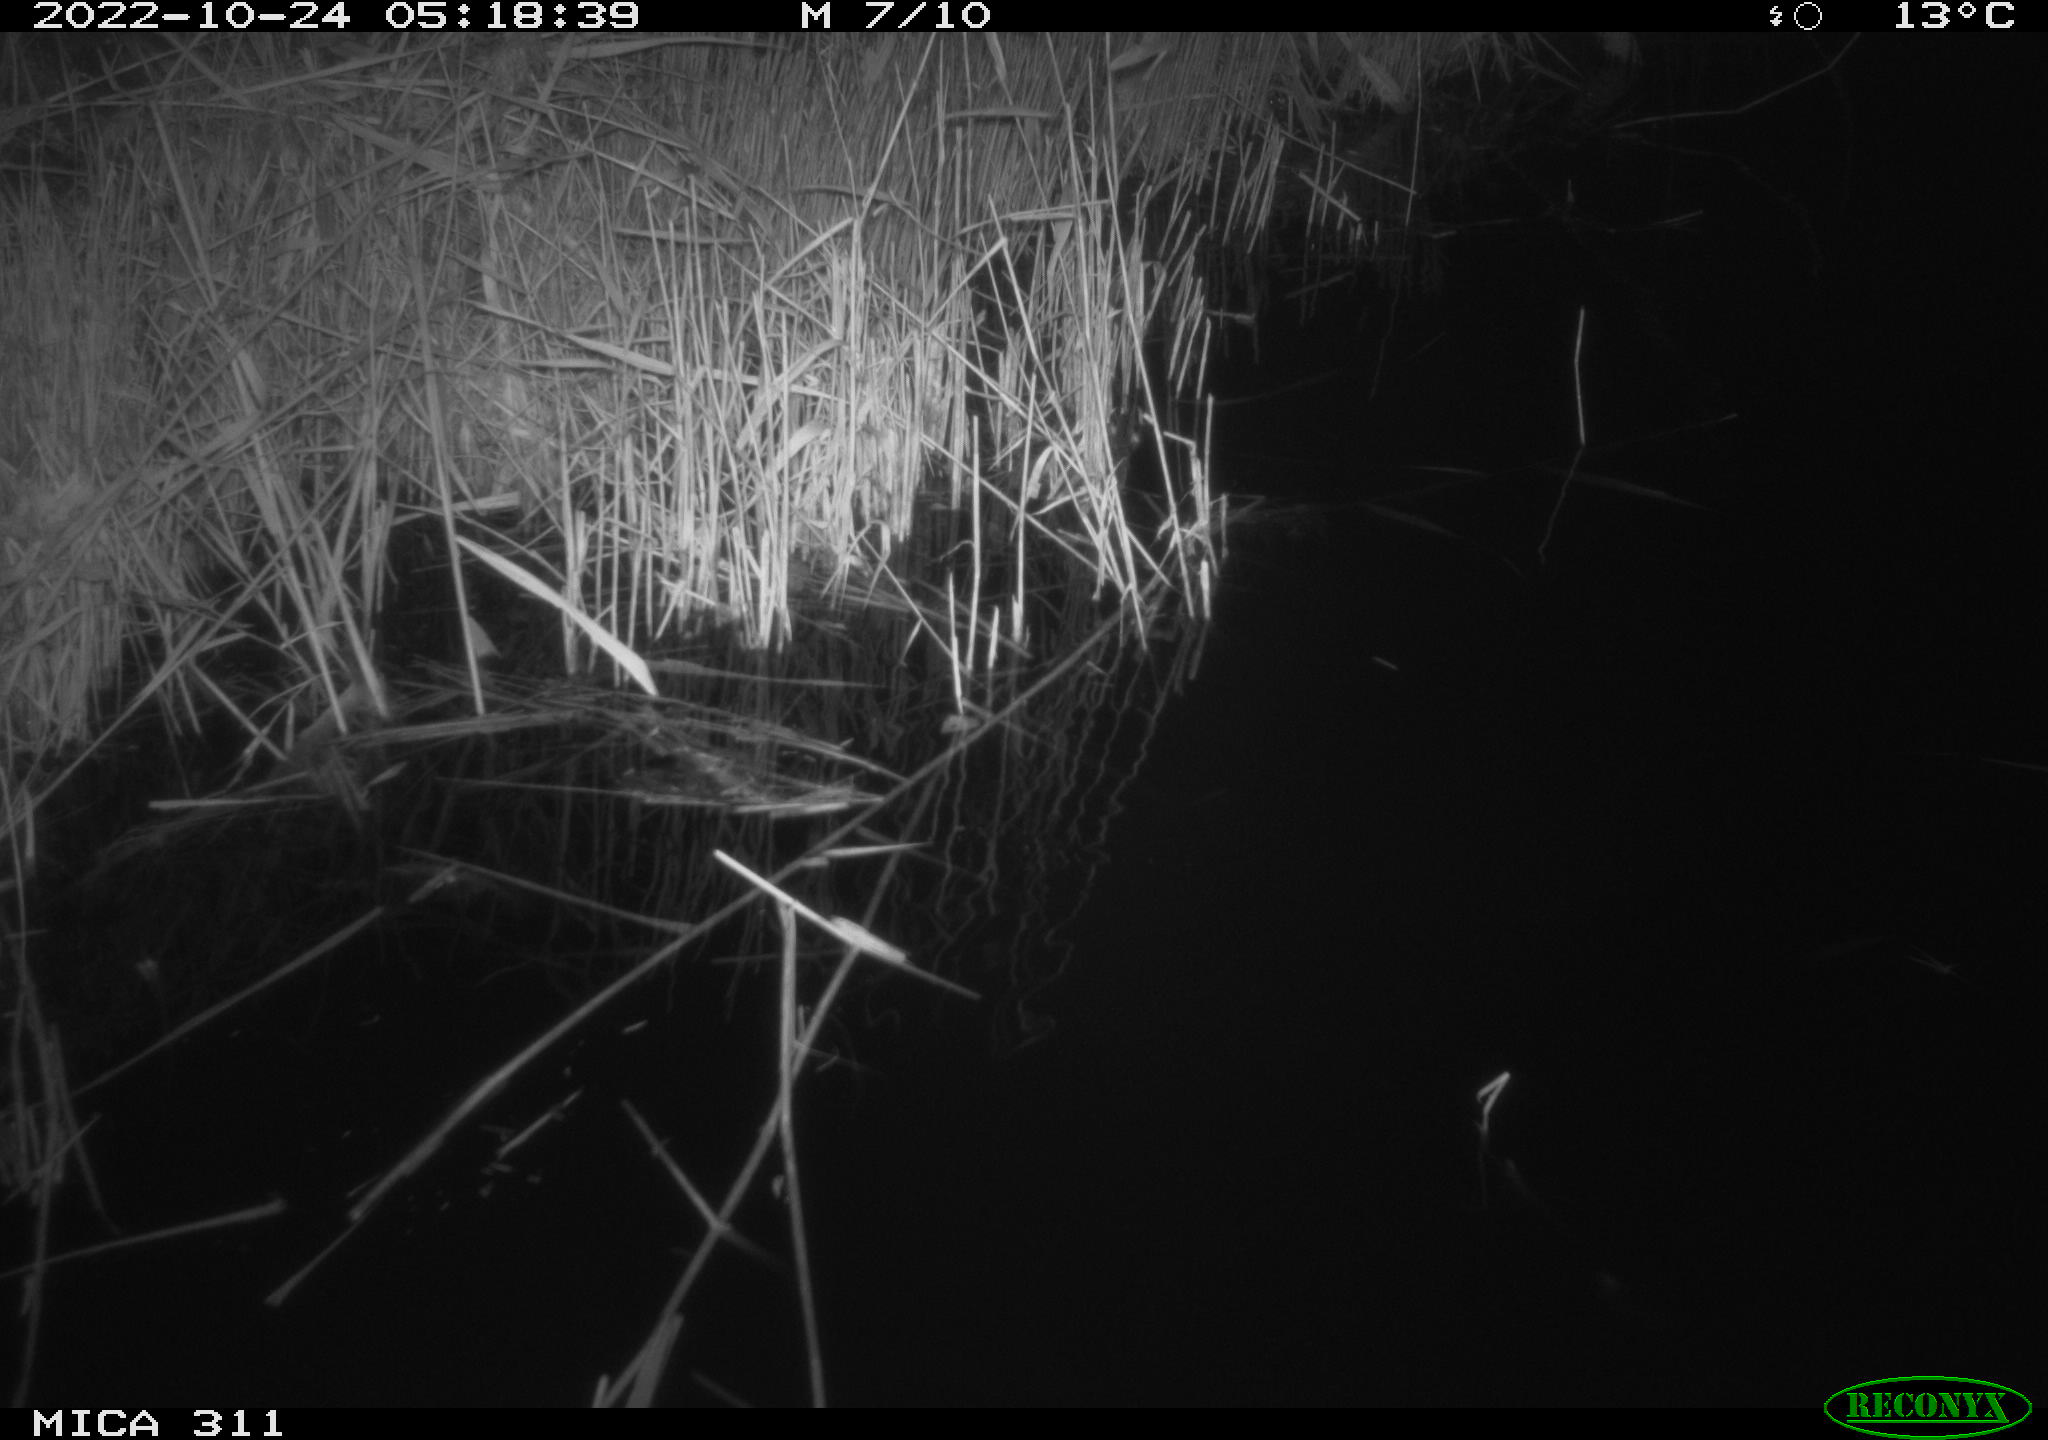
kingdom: Animalia
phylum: Chordata
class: Mammalia
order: Rodentia
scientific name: Rodentia
